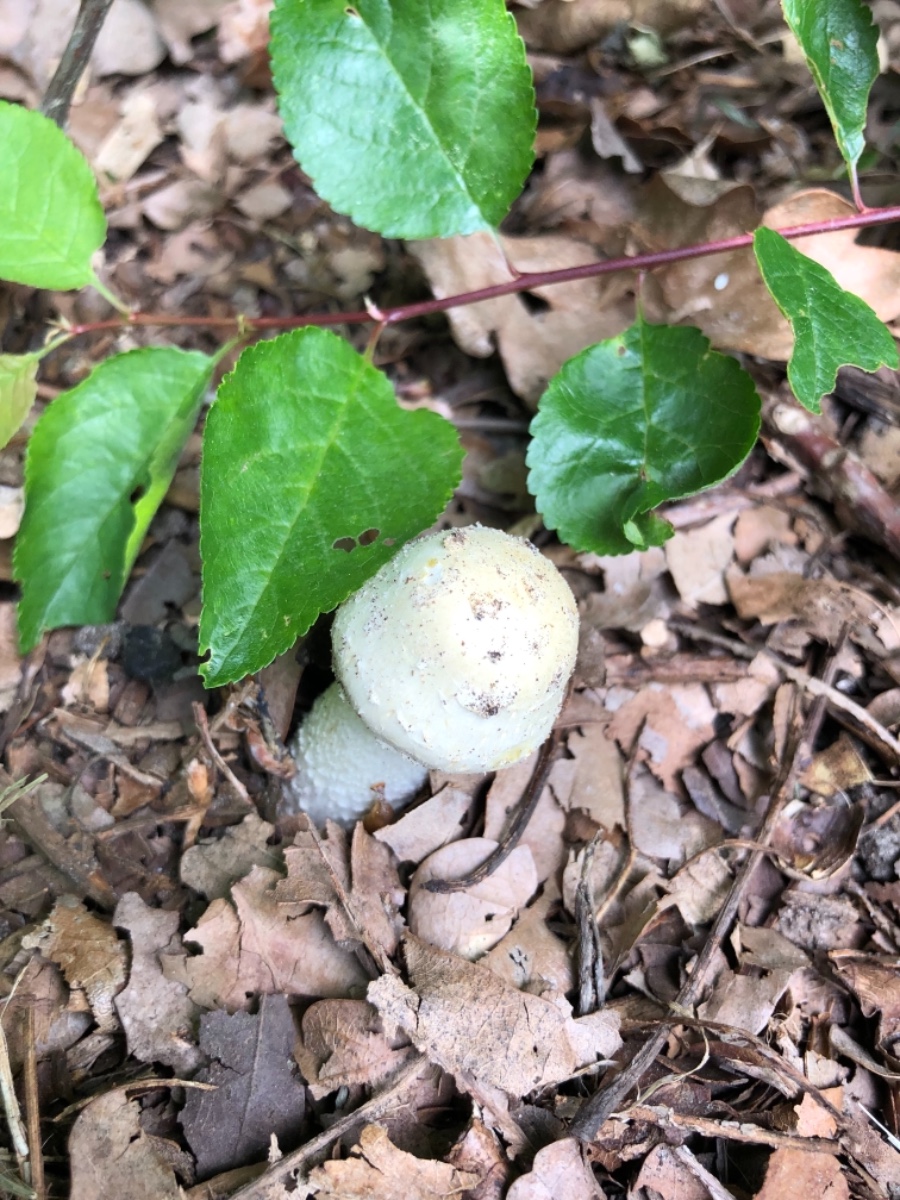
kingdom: Fungi
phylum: Basidiomycota
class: Agaricomycetes
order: Agaricales
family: Agaricaceae
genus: Agaricus
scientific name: Agaricus xanthodermus
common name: karbol-champignon
